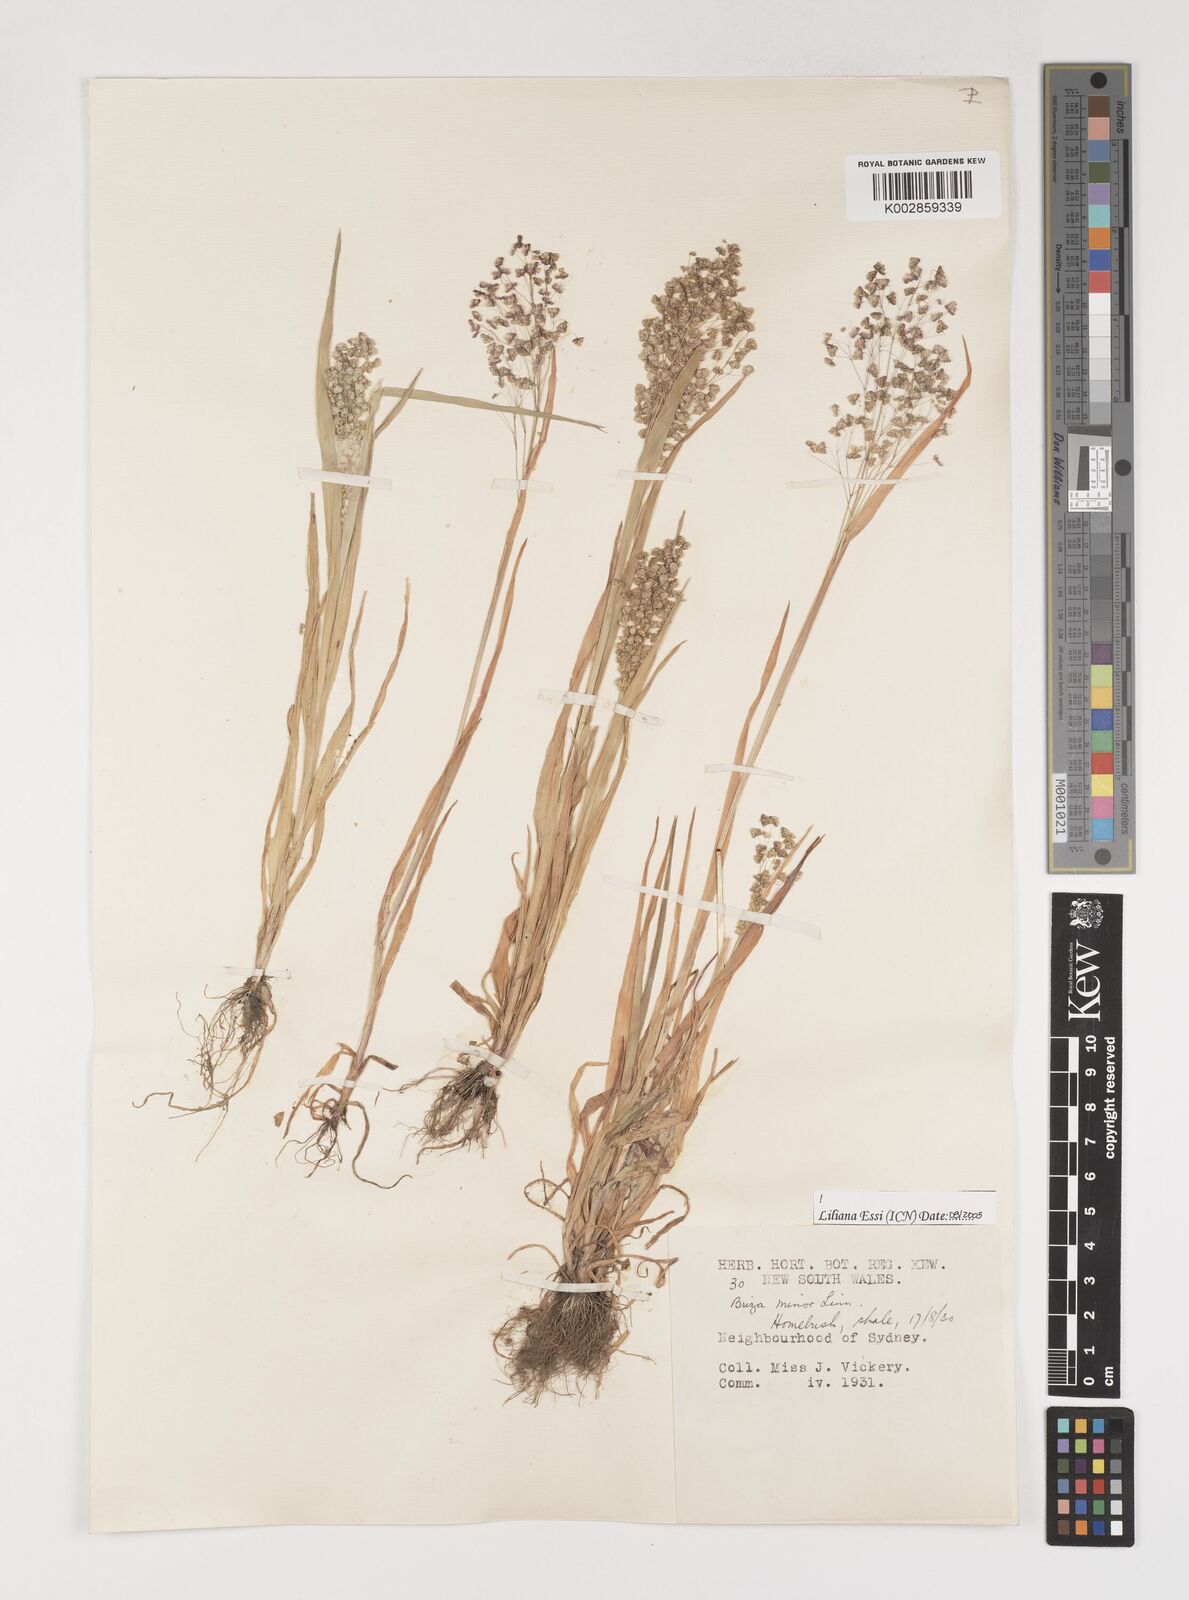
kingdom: Plantae
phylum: Tracheophyta
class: Liliopsida
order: Poales
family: Poaceae
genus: Briza
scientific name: Briza minor
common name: Lesser quaking-grass
